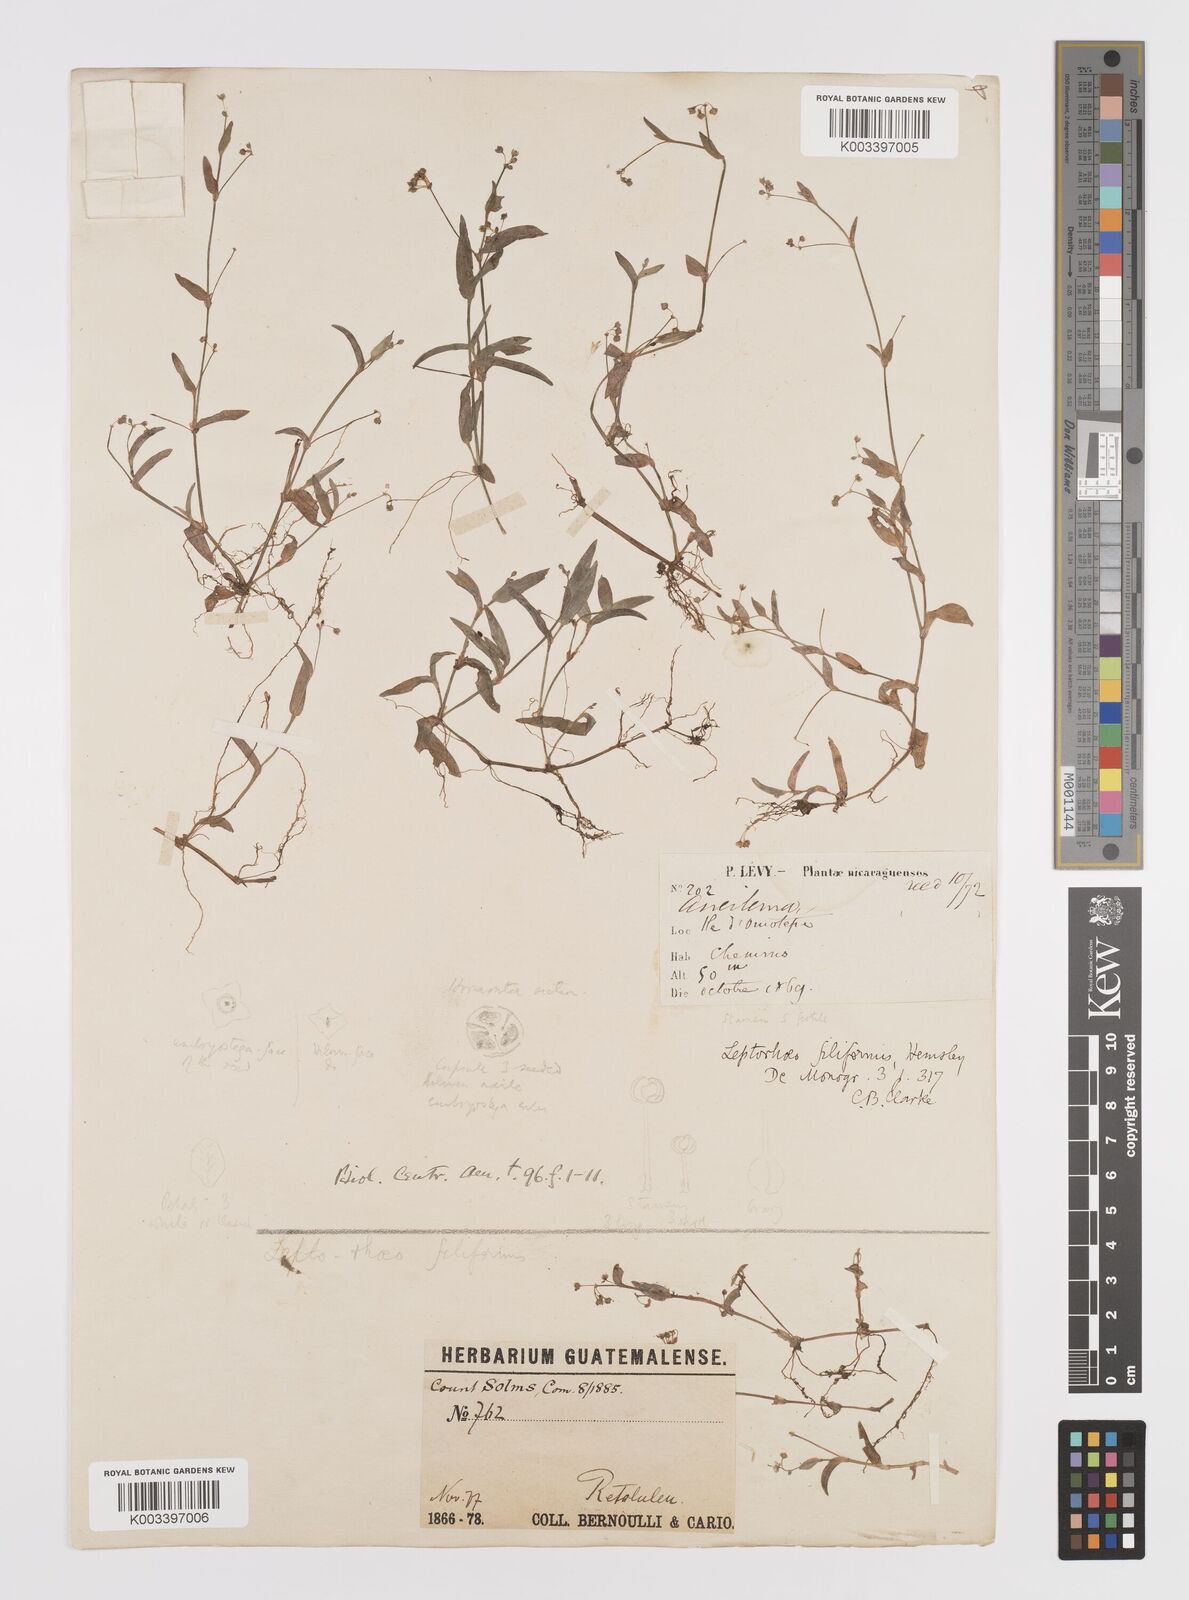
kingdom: Plantae
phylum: Tracheophyta
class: Liliopsida
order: Commelinales
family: Commelinaceae
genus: Callisia
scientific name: Callisia
